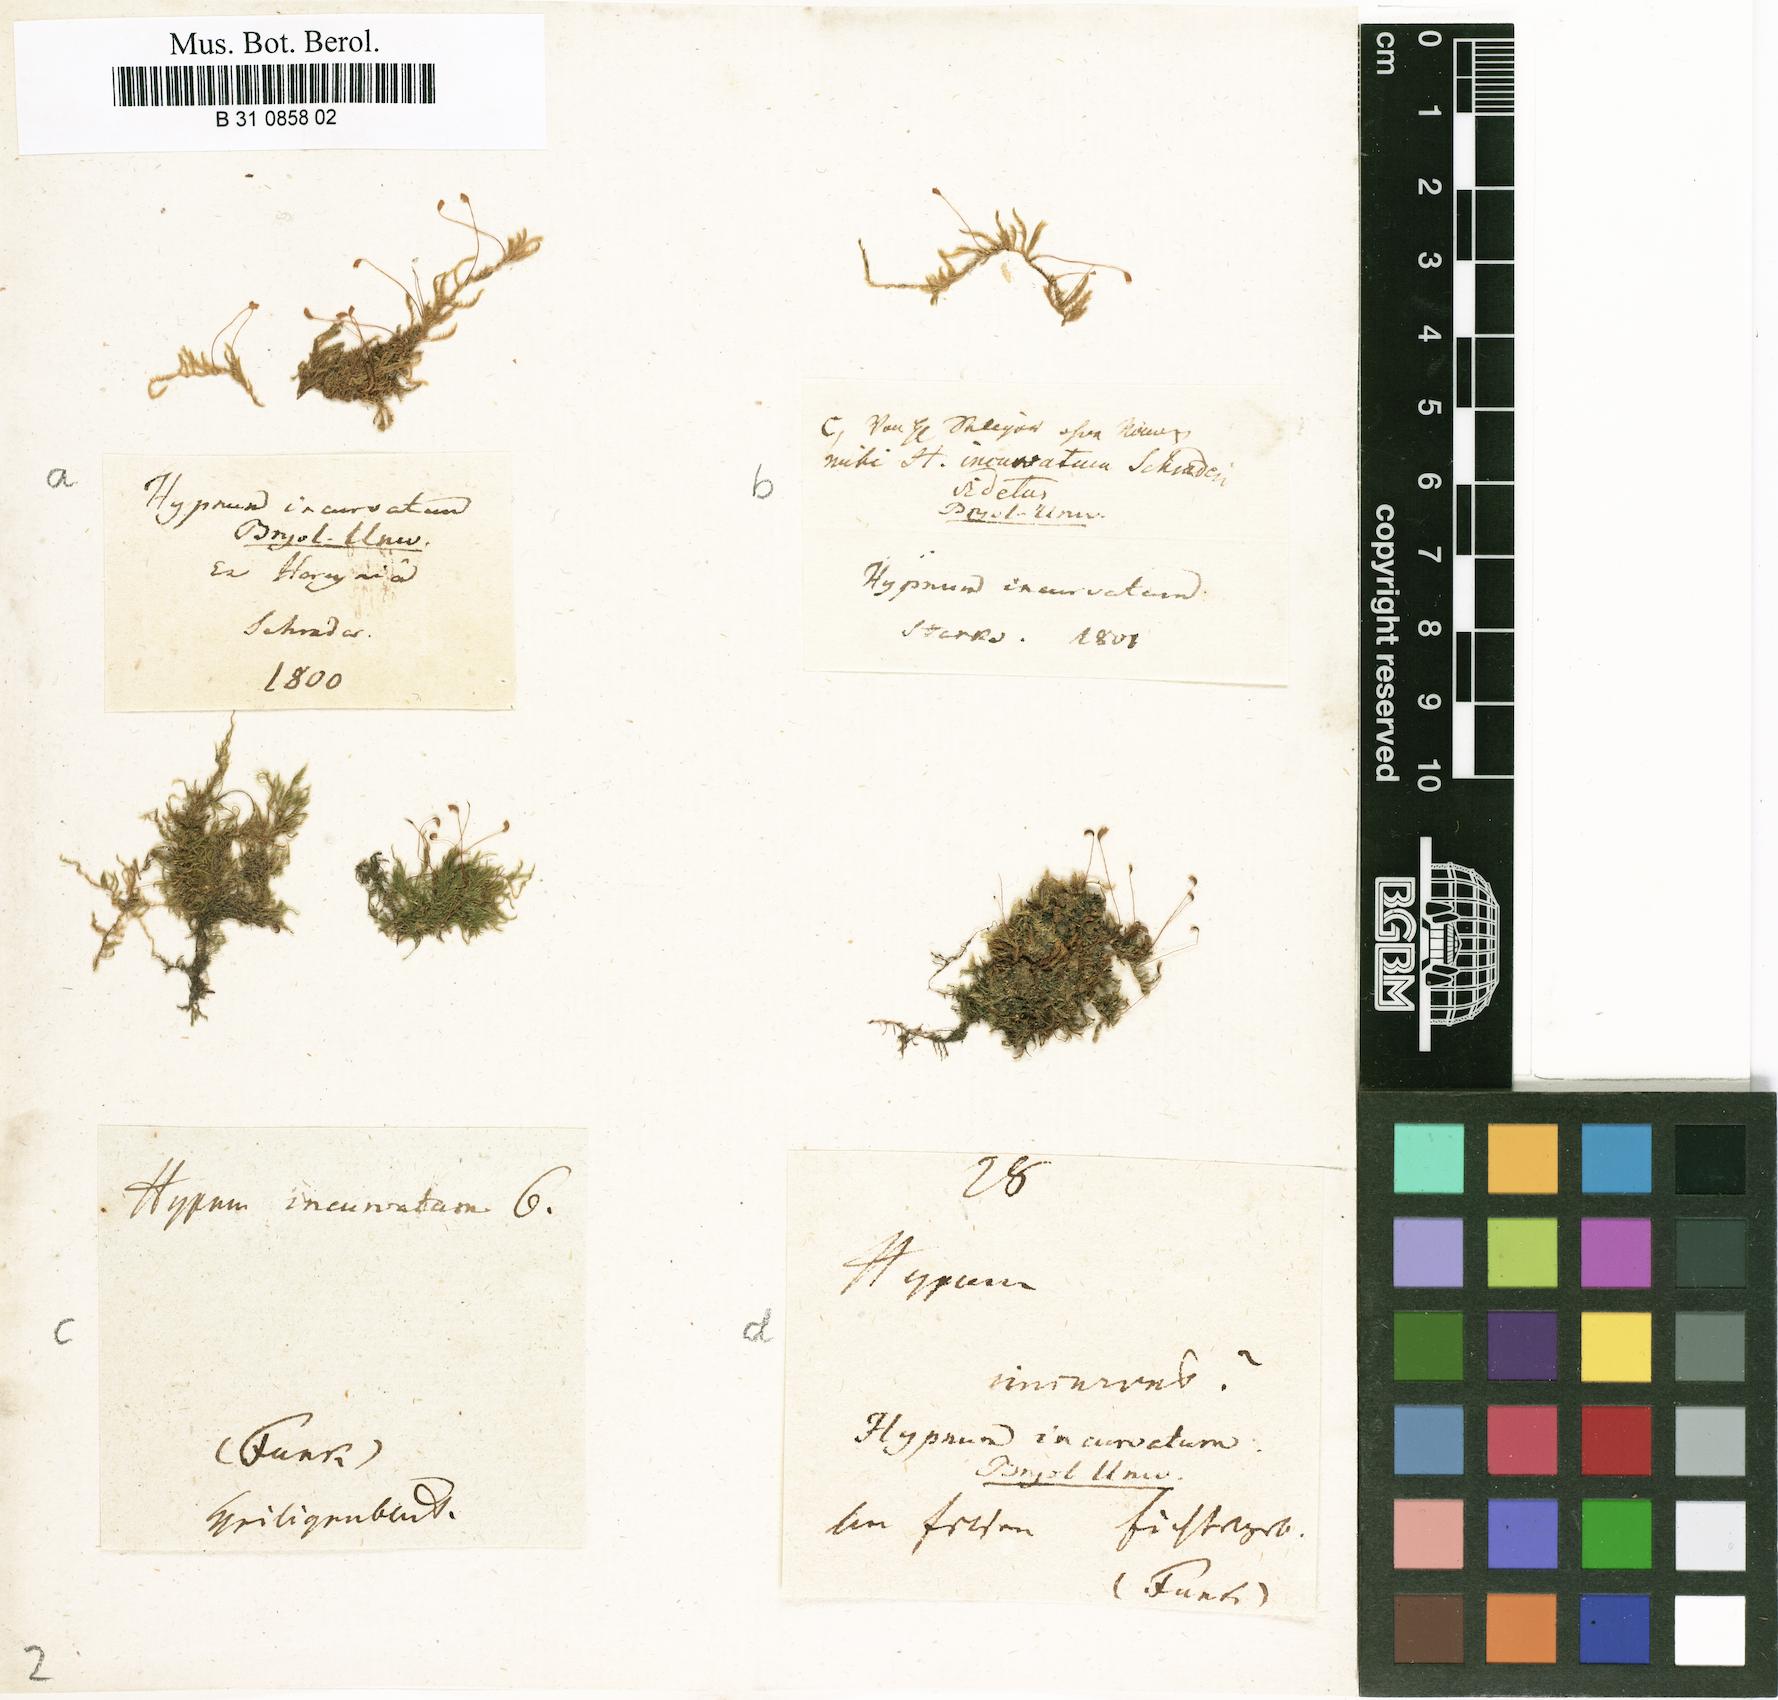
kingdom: Plantae
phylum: Bryophyta
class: Bryopsida
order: Hypnales
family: Pylaisiaceae
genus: Homomallium
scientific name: Homomallium incurvatum
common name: Incurved feather-moss
